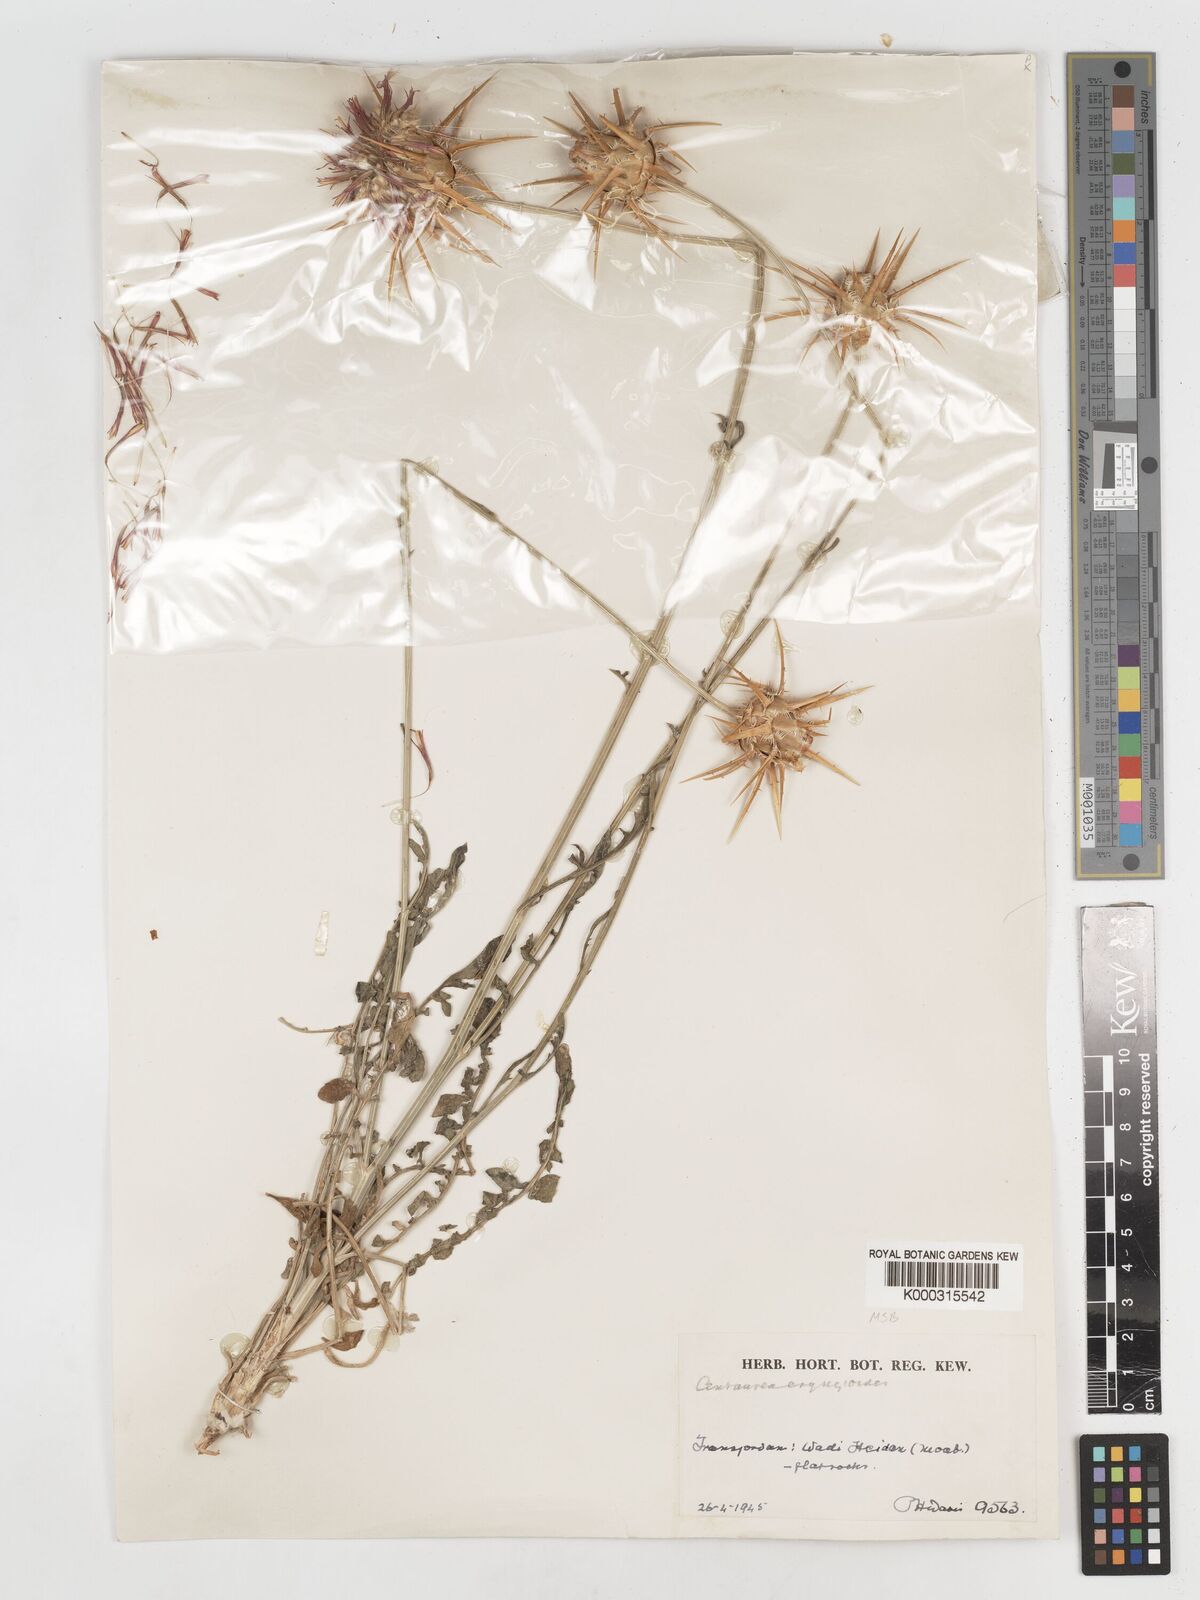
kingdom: Plantae
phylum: Tracheophyta
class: Magnoliopsida
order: Asterales
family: Asteraceae
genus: Centaurea
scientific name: Centaurea eryngioides
